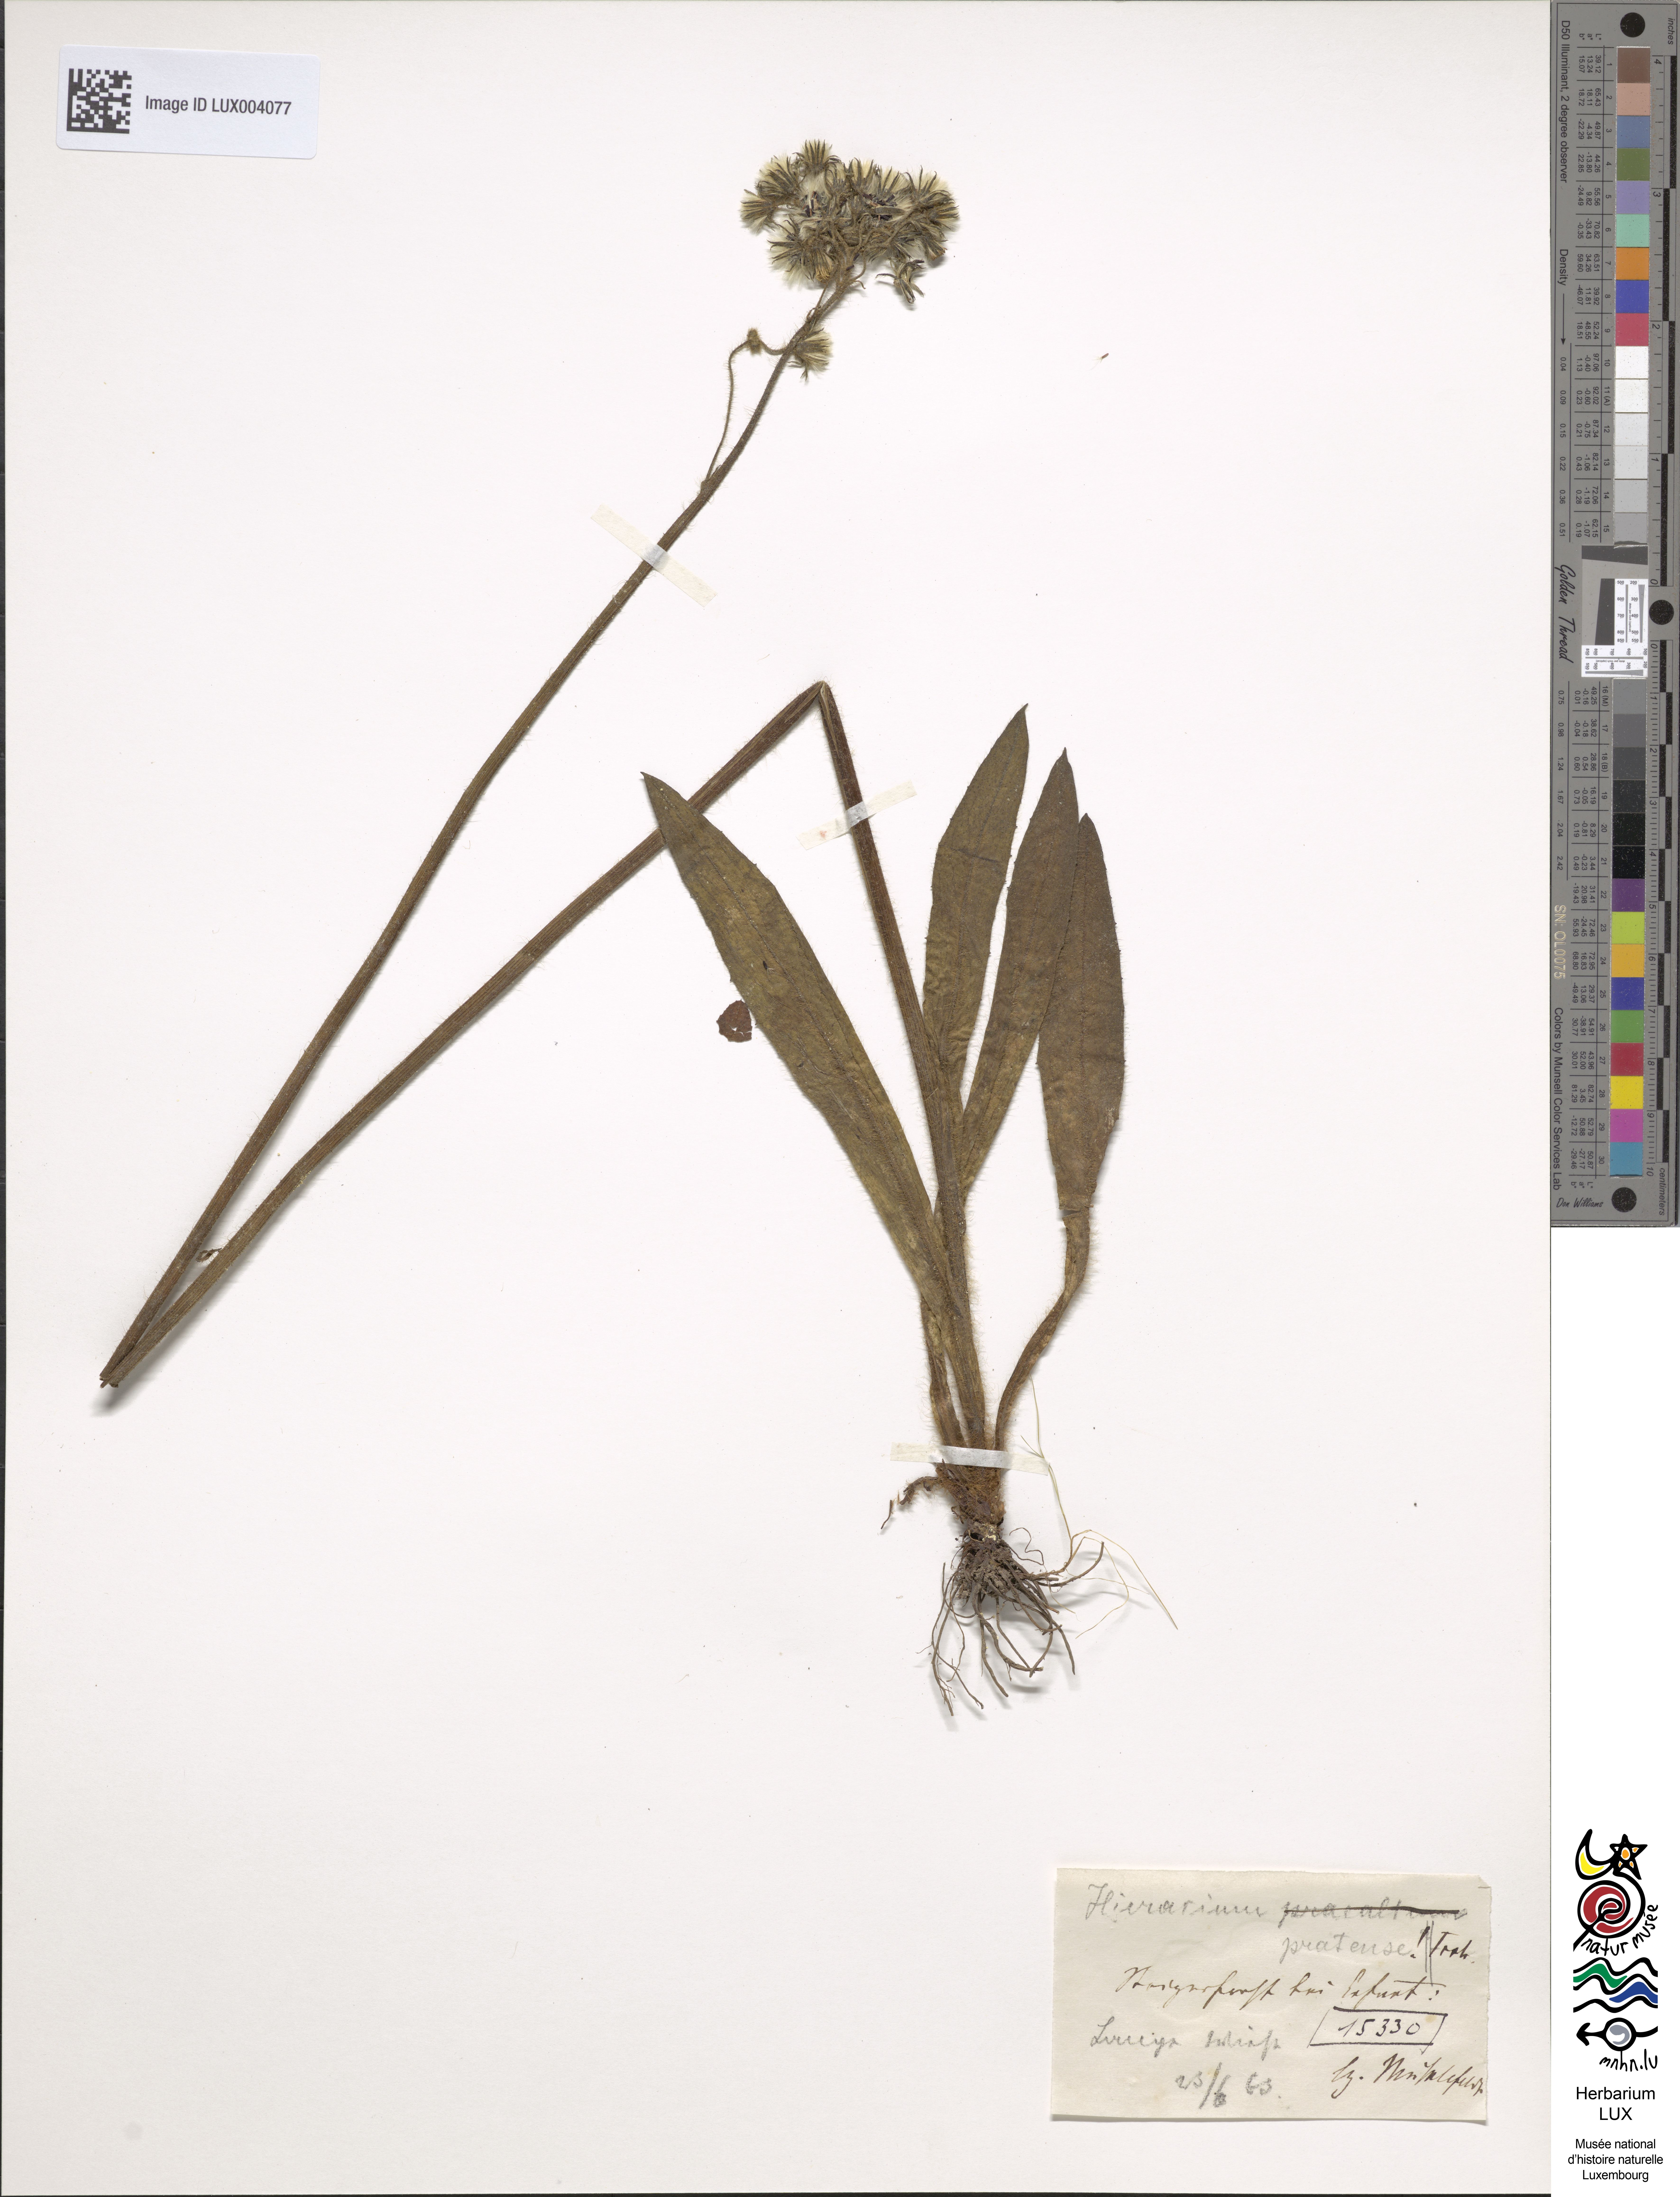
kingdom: Plantae
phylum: Tracheophyta
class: Magnoliopsida
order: Asterales
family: Asteraceae
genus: Pilosella
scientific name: Pilosella caespitosa
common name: Yellow fox-and-cubs
